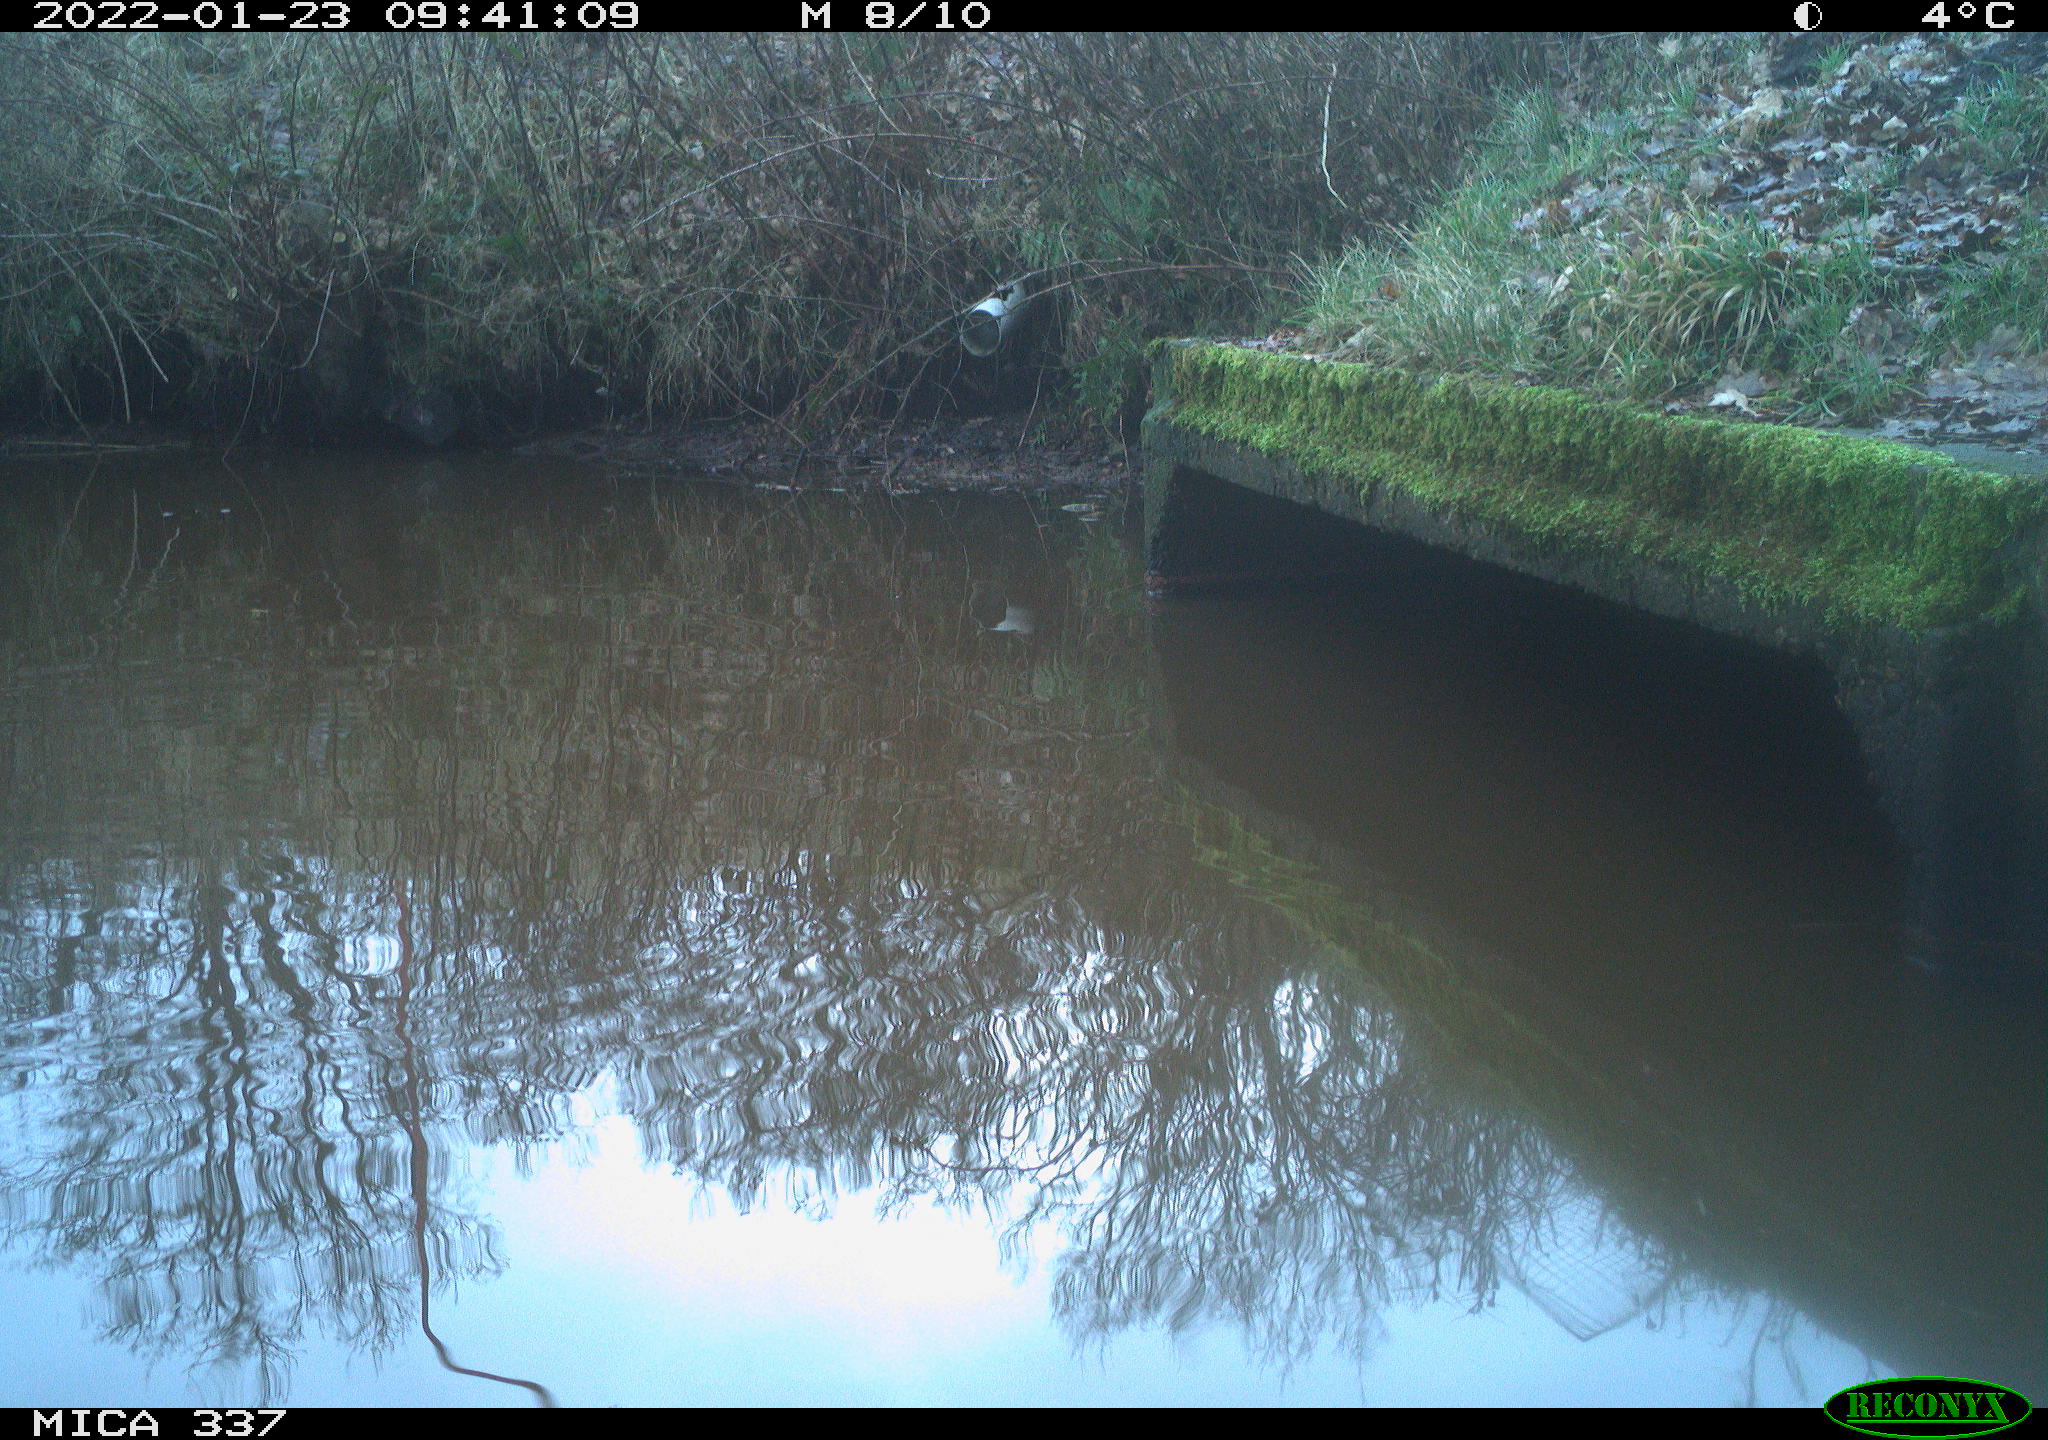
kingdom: Animalia
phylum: Chordata
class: Aves
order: Anseriformes
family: Anatidae
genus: Anas
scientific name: Anas platyrhynchos
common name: Mallard
